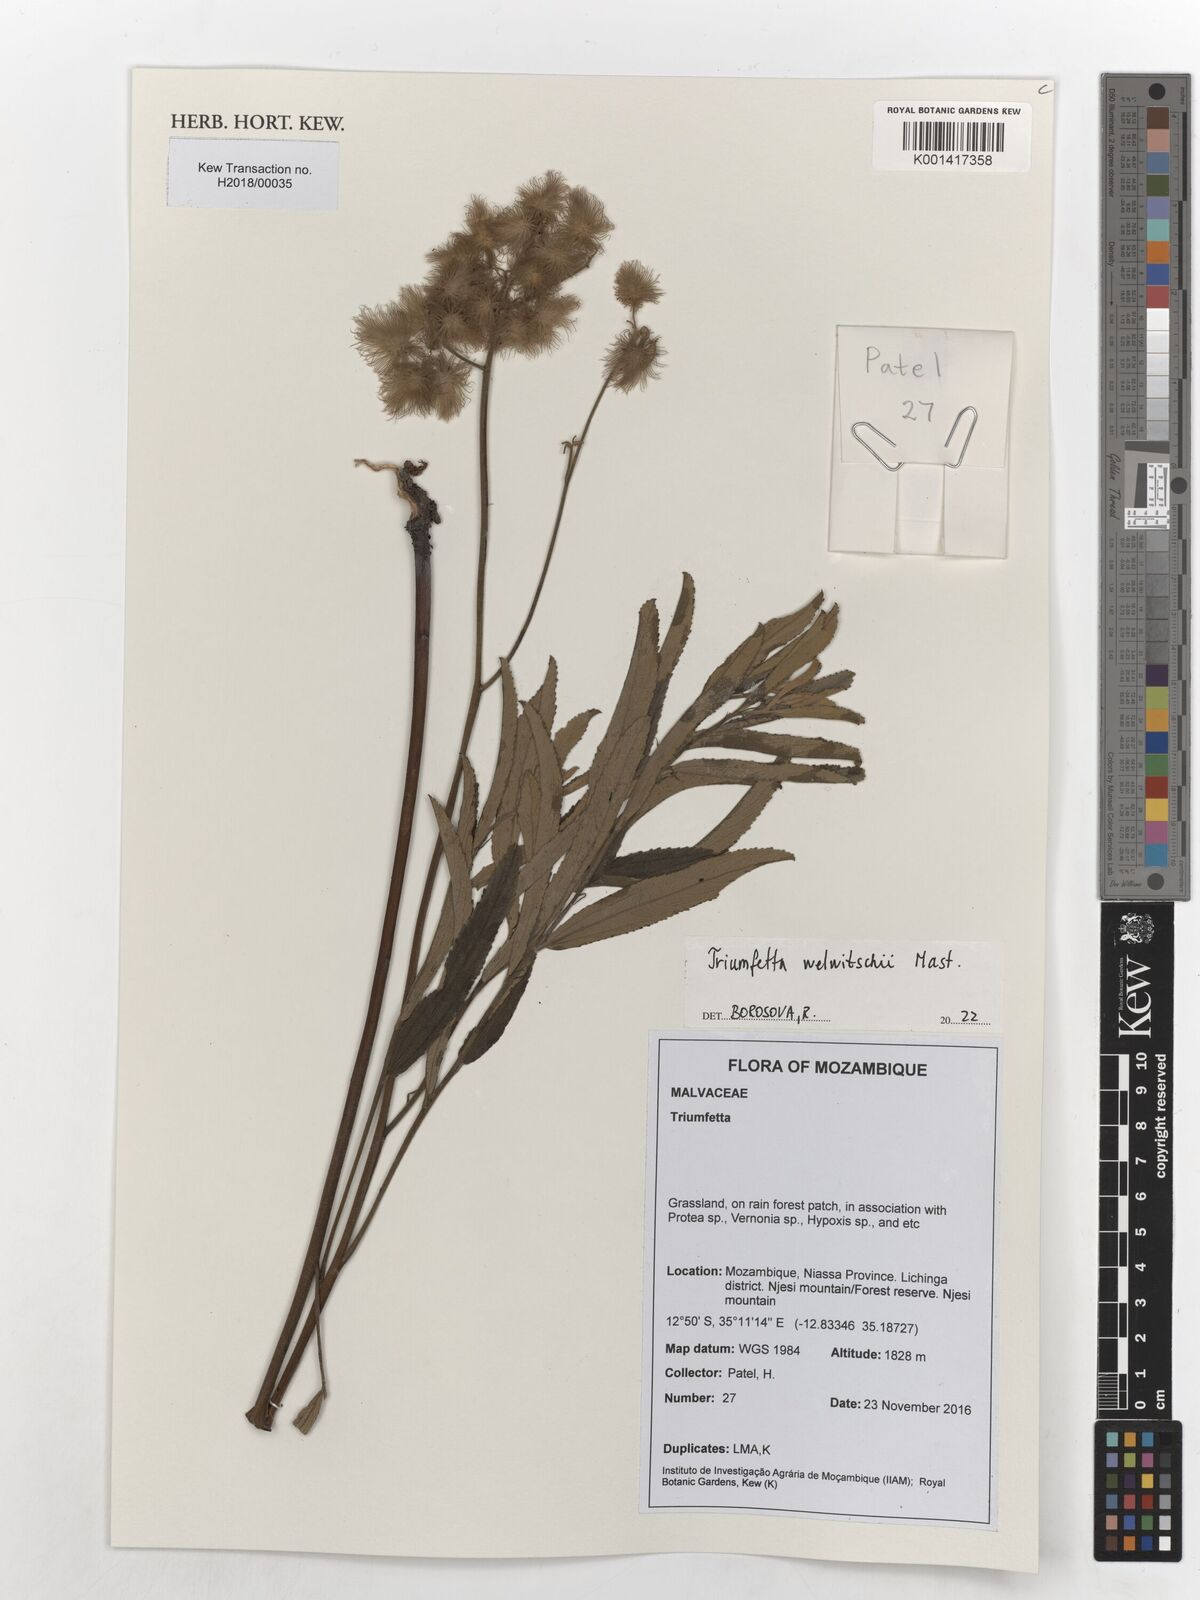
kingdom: Plantae
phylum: Tracheophyta
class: Magnoliopsida
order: Malvales
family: Malvaceae
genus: Triumfetta
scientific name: Triumfetta welwitschii
